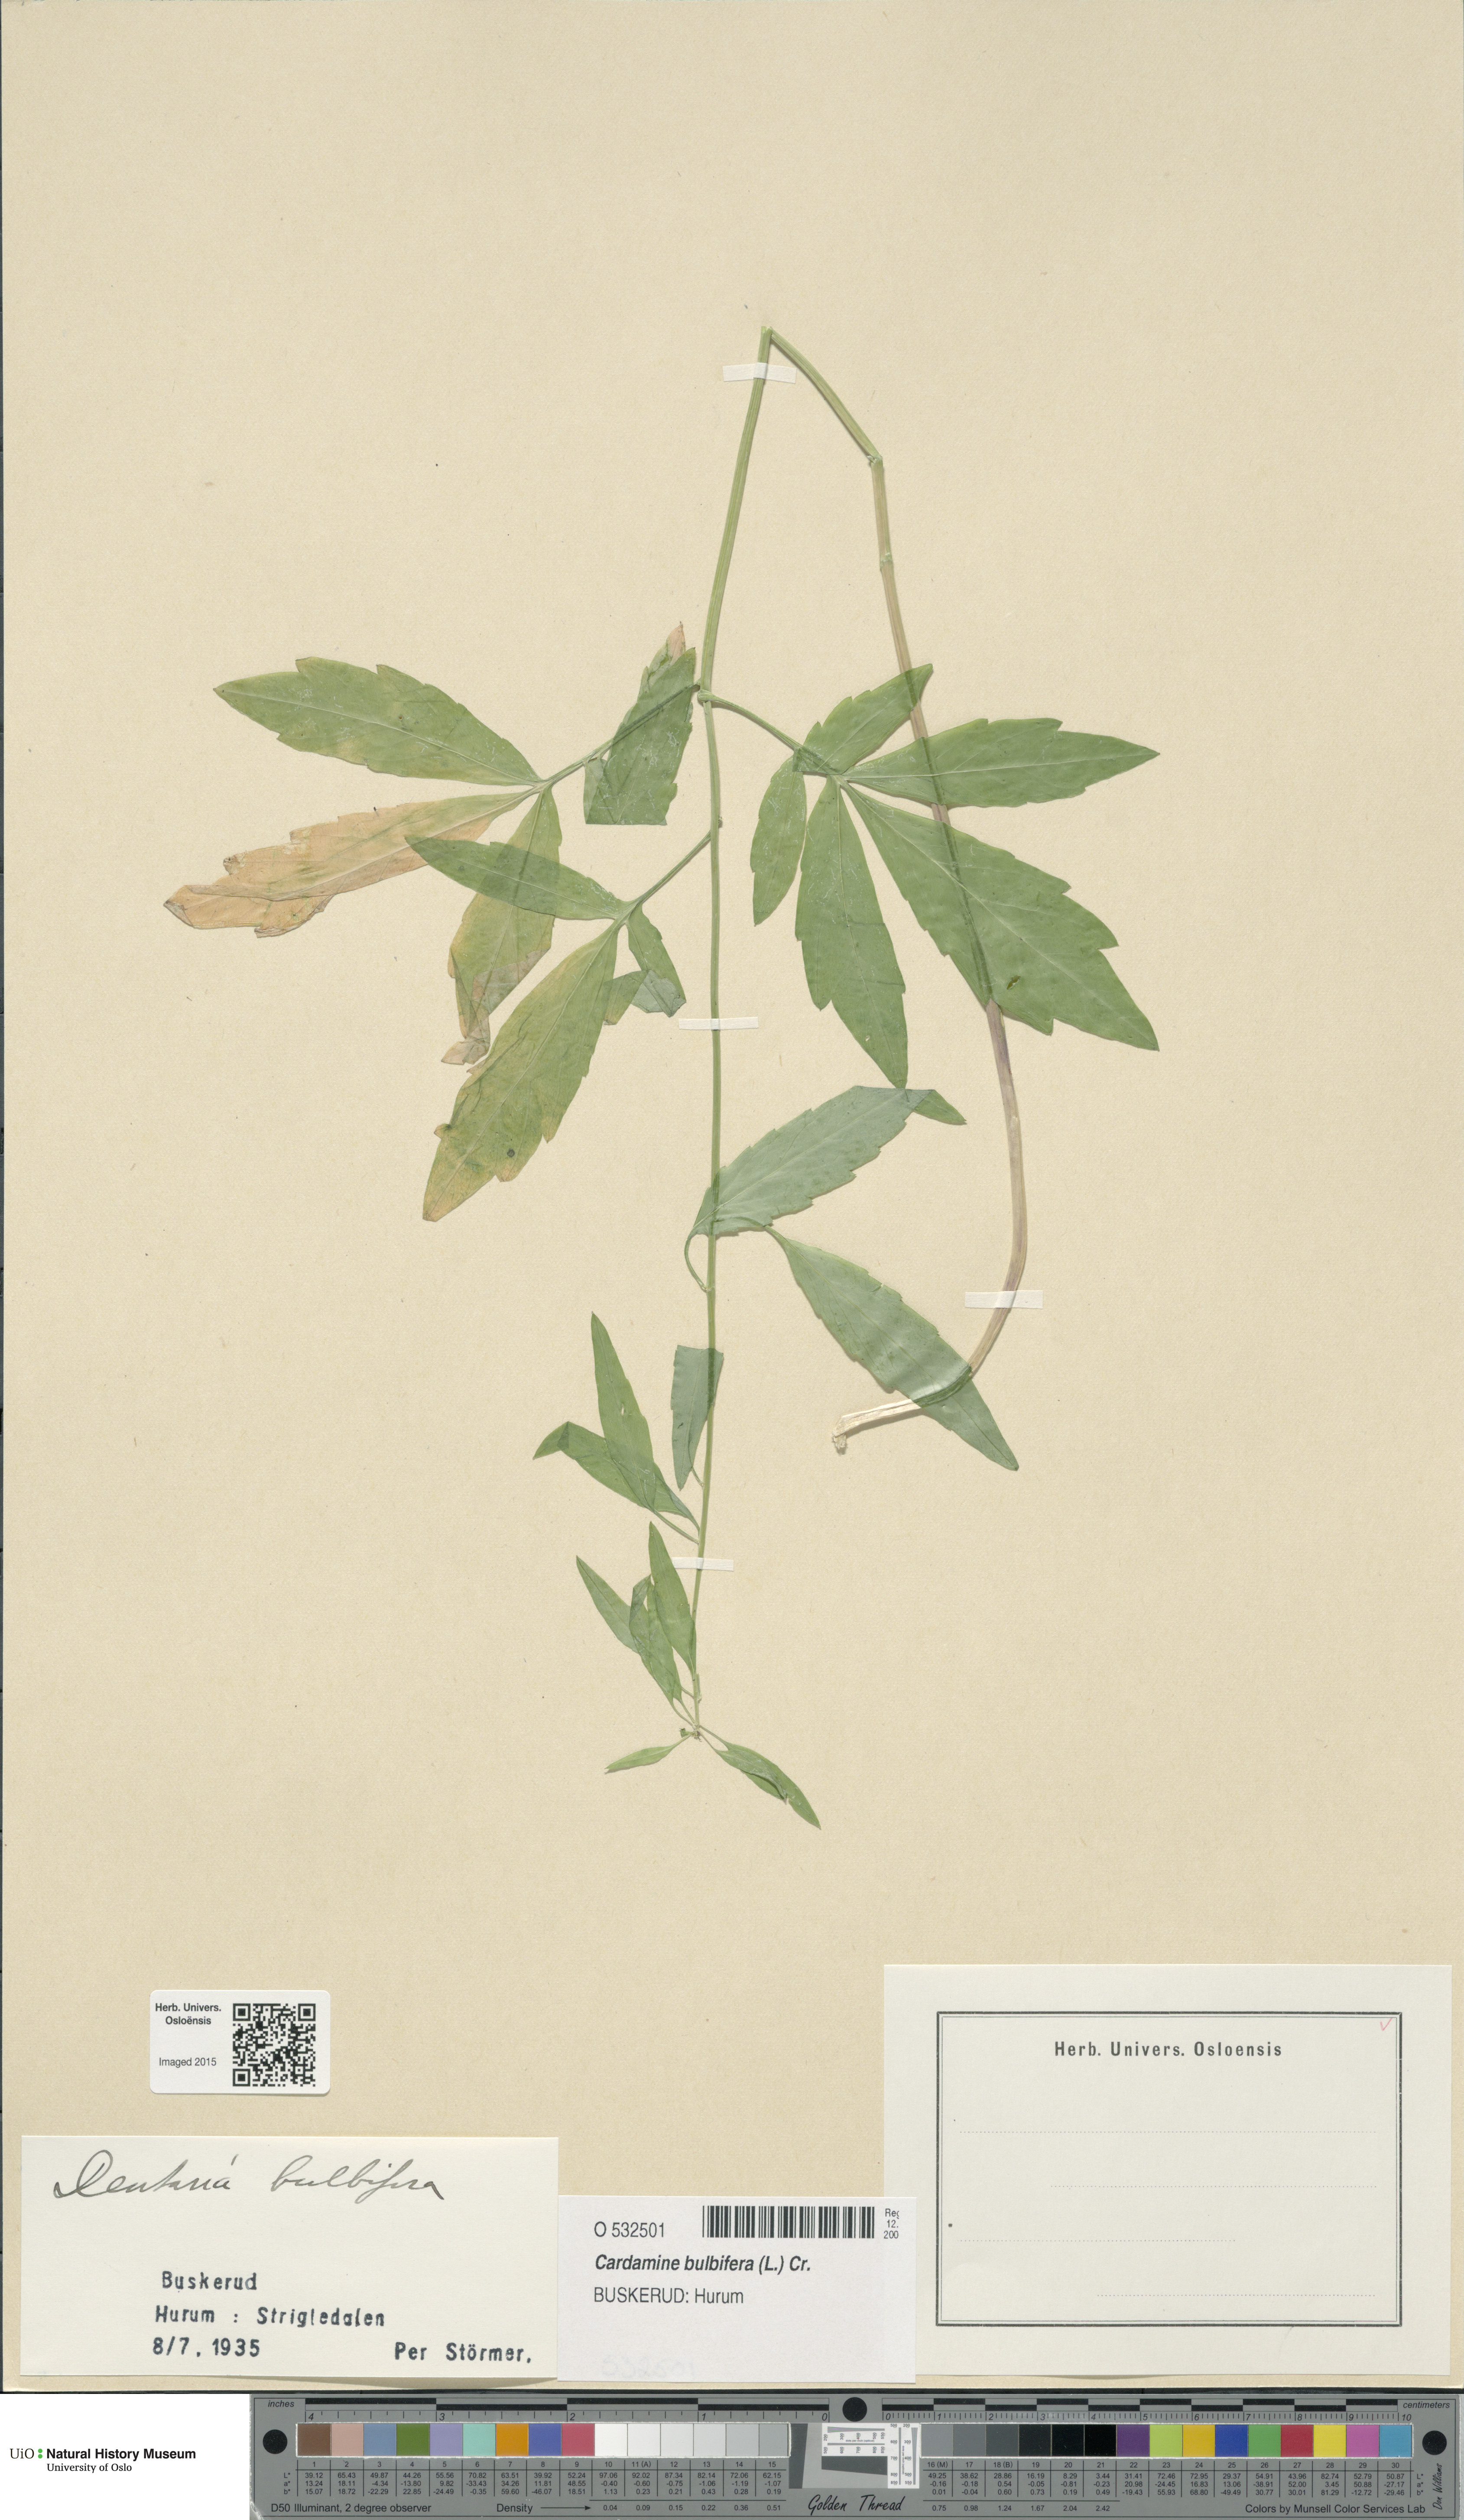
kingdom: Plantae
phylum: Tracheophyta
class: Magnoliopsida
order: Brassicales
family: Brassicaceae
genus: Cardamine
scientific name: Cardamine bulbifera
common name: Coralroot bittercress
